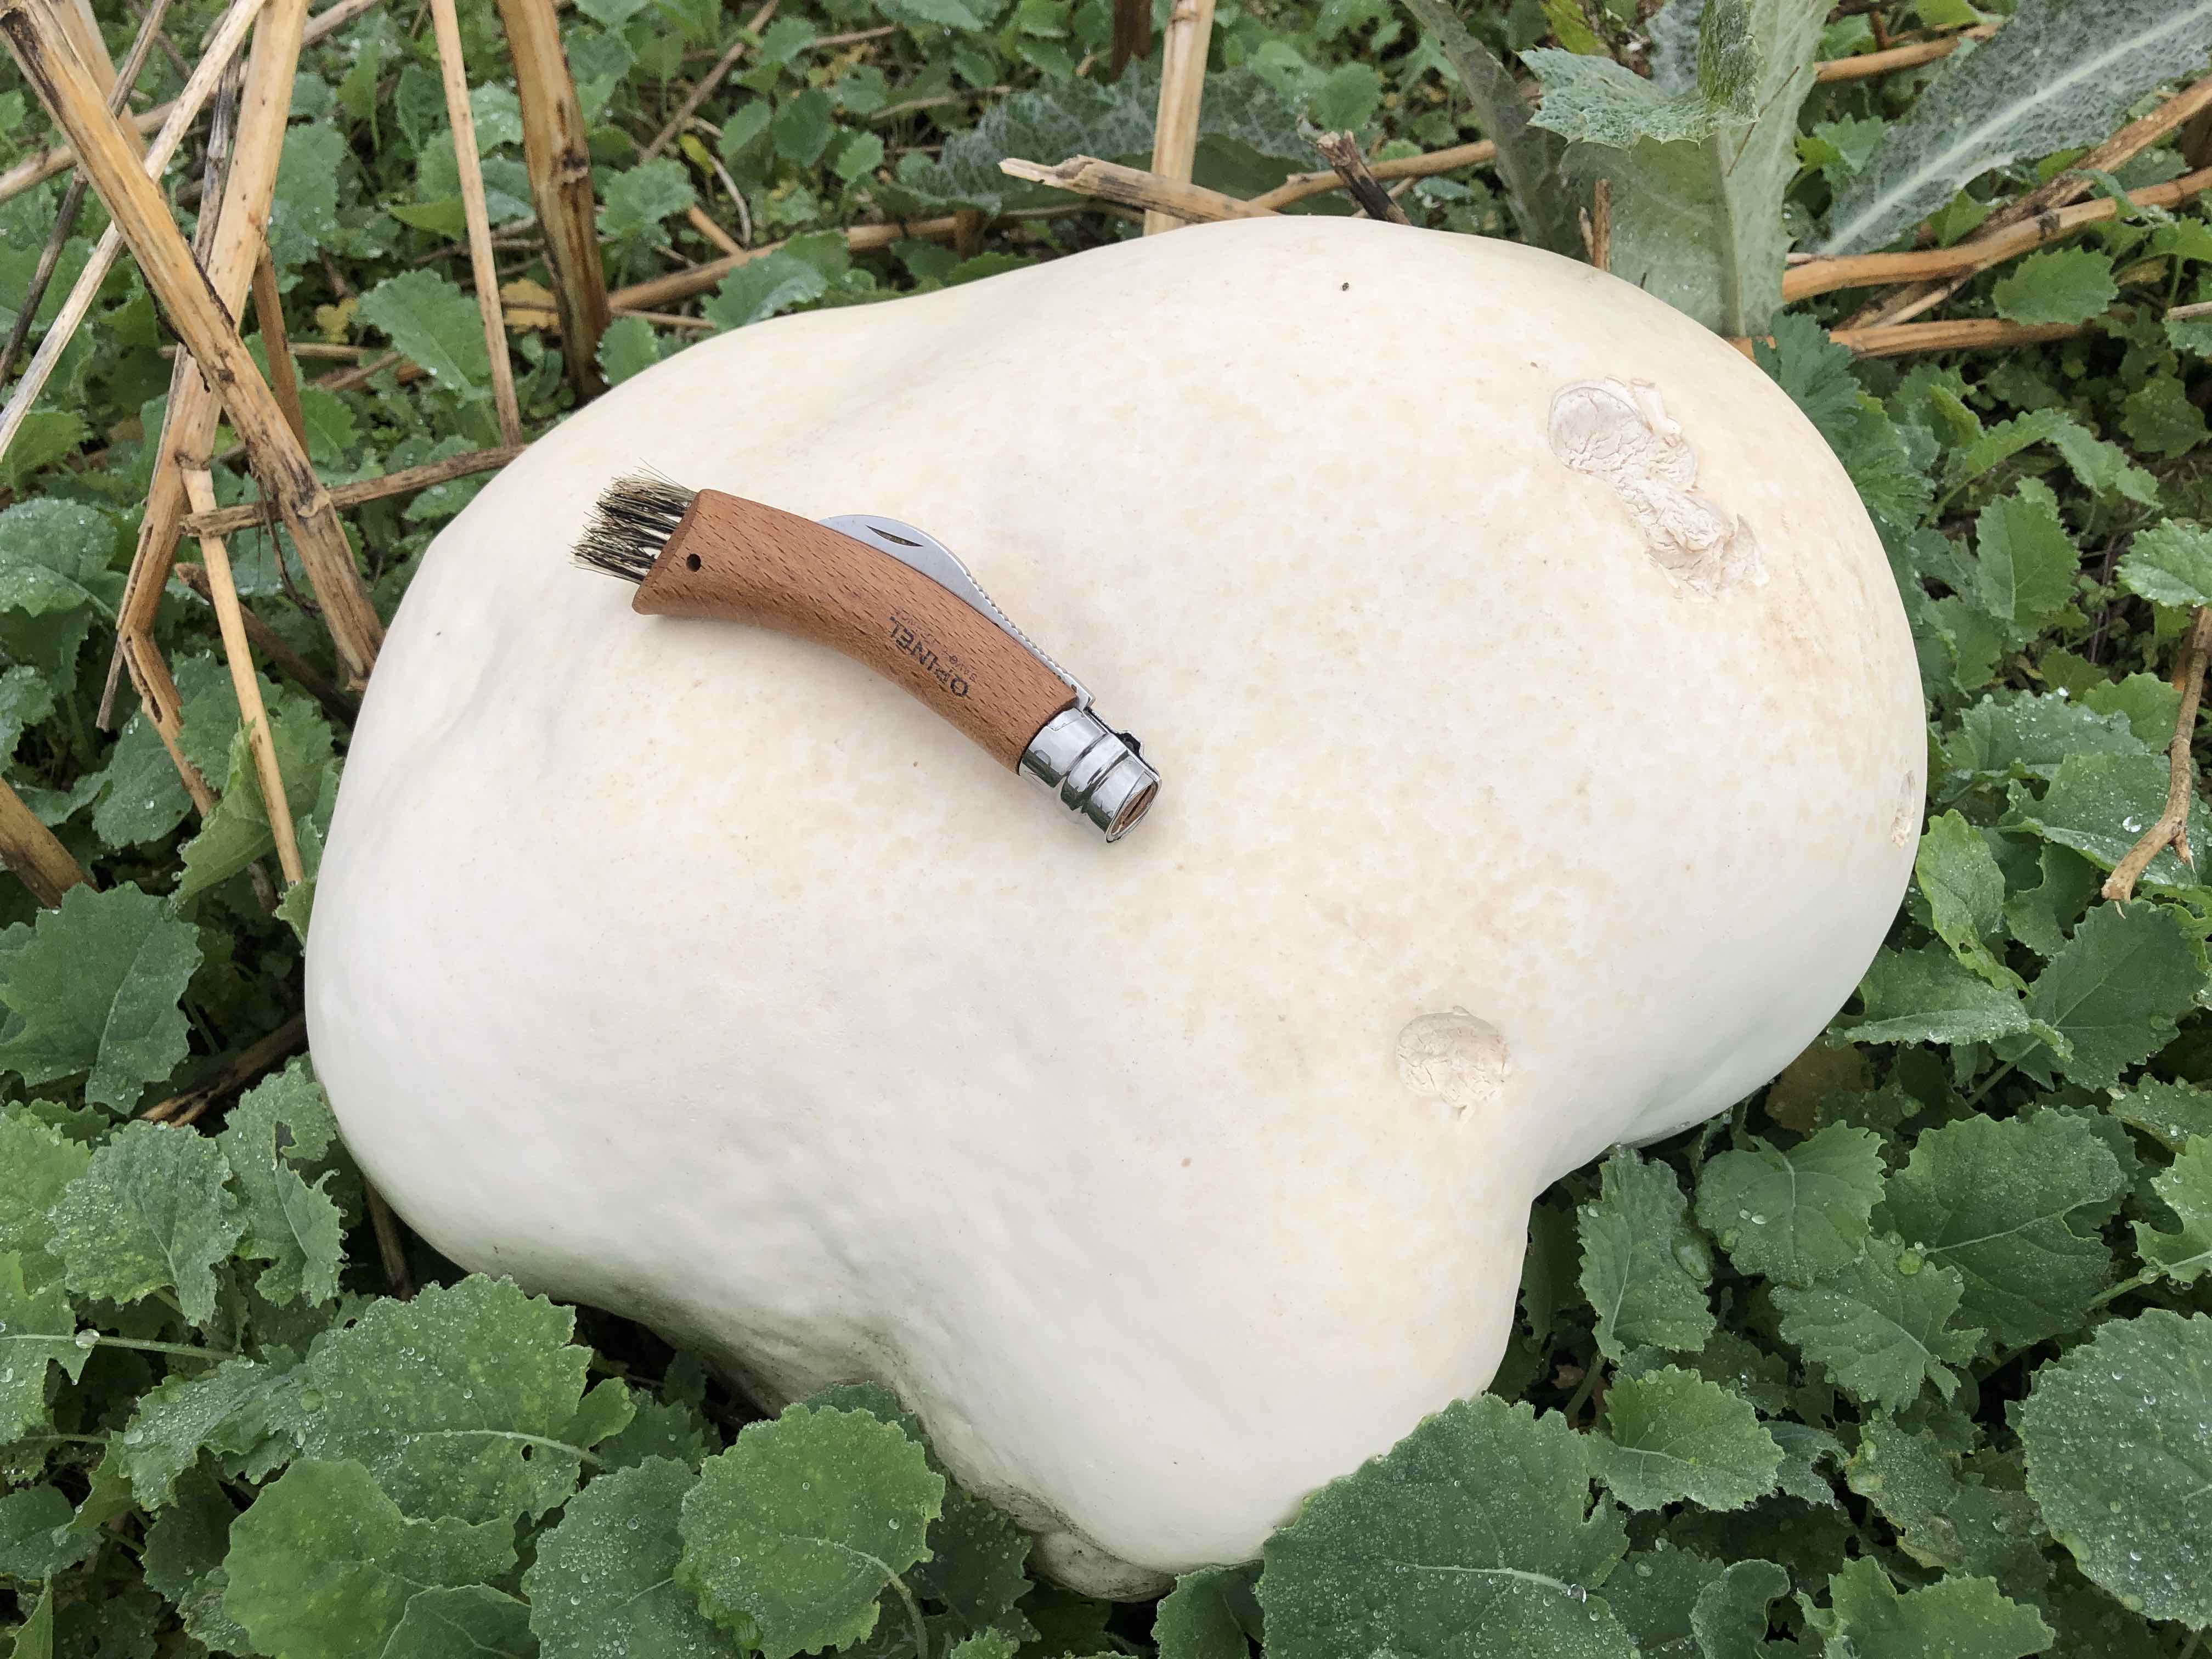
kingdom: Fungi
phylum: Basidiomycota
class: Agaricomycetes
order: Agaricales
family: Lycoperdaceae
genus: Calvatia
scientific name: Calvatia gigantea
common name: kæmpestøvbold
